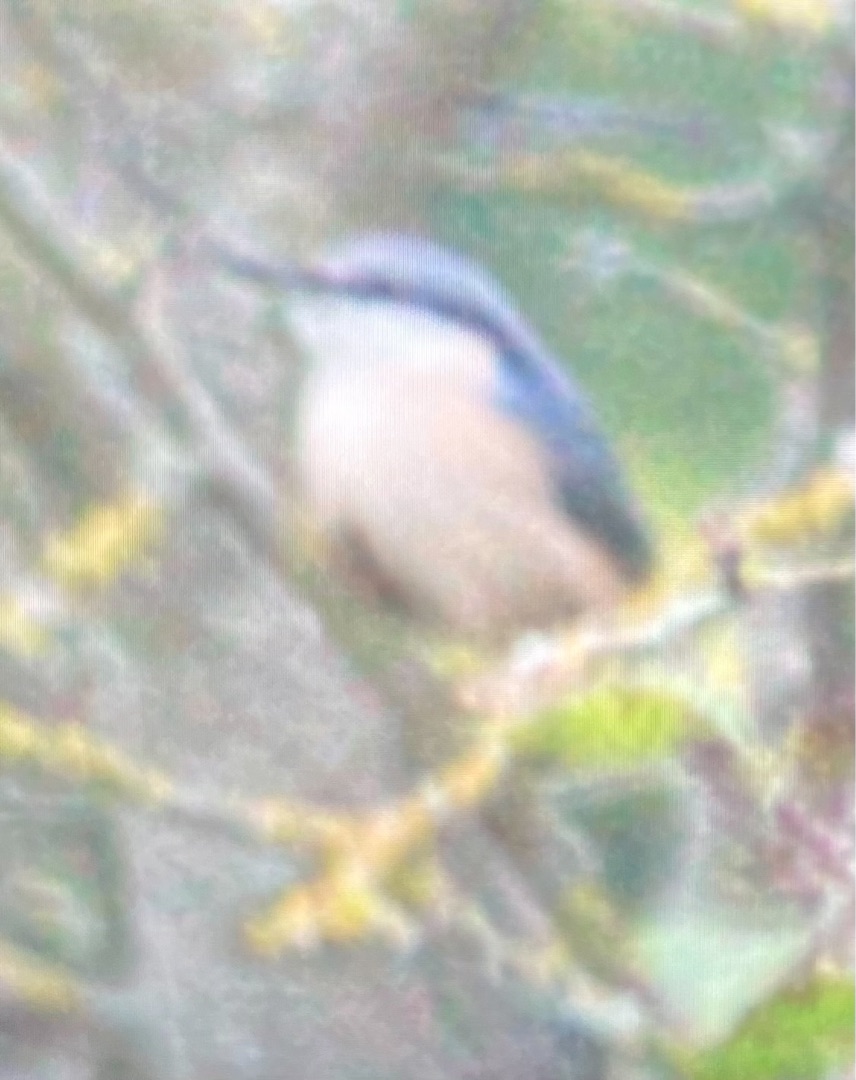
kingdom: Animalia
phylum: Chordata
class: Aves
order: Passeriformes
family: Sittidae
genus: Sitta
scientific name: Sitta europaea
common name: Spætmejse
